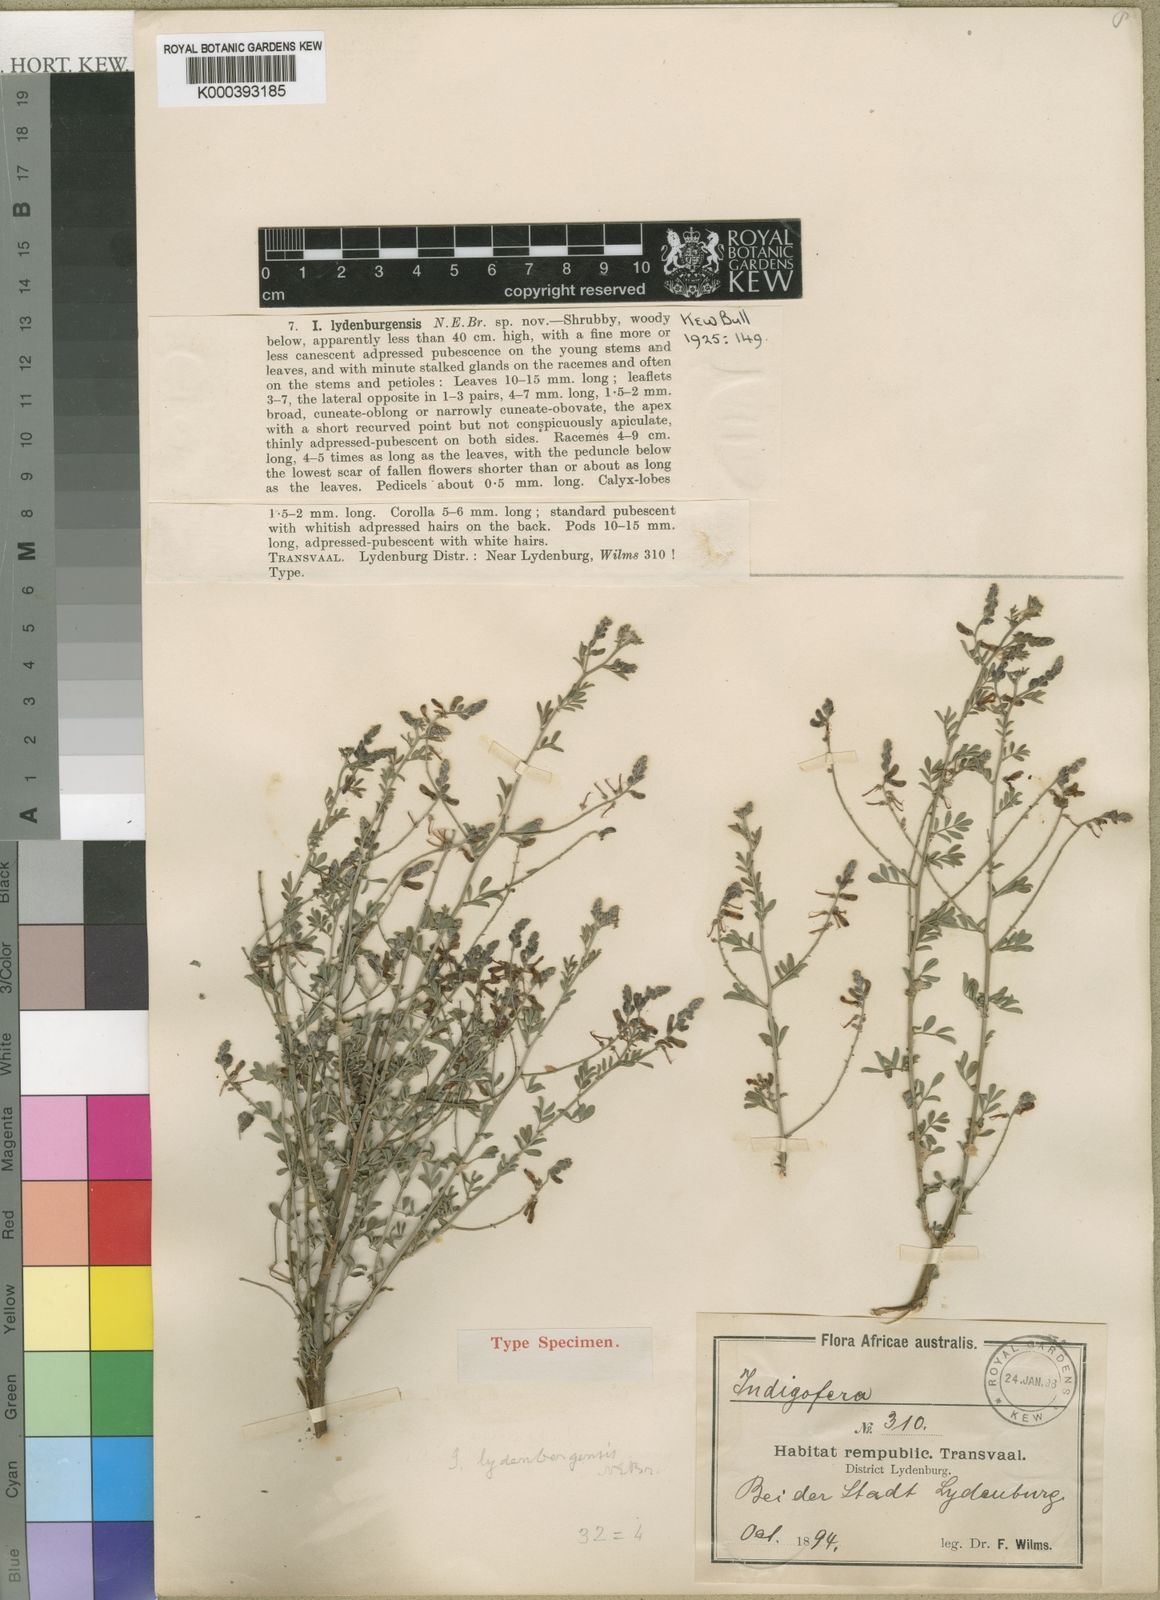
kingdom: Plantae
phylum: Tracheophyta
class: Magnoliopsida
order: Fabales
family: Fabaceae
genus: Indigofera
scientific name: Indigofera lydenburgensis
